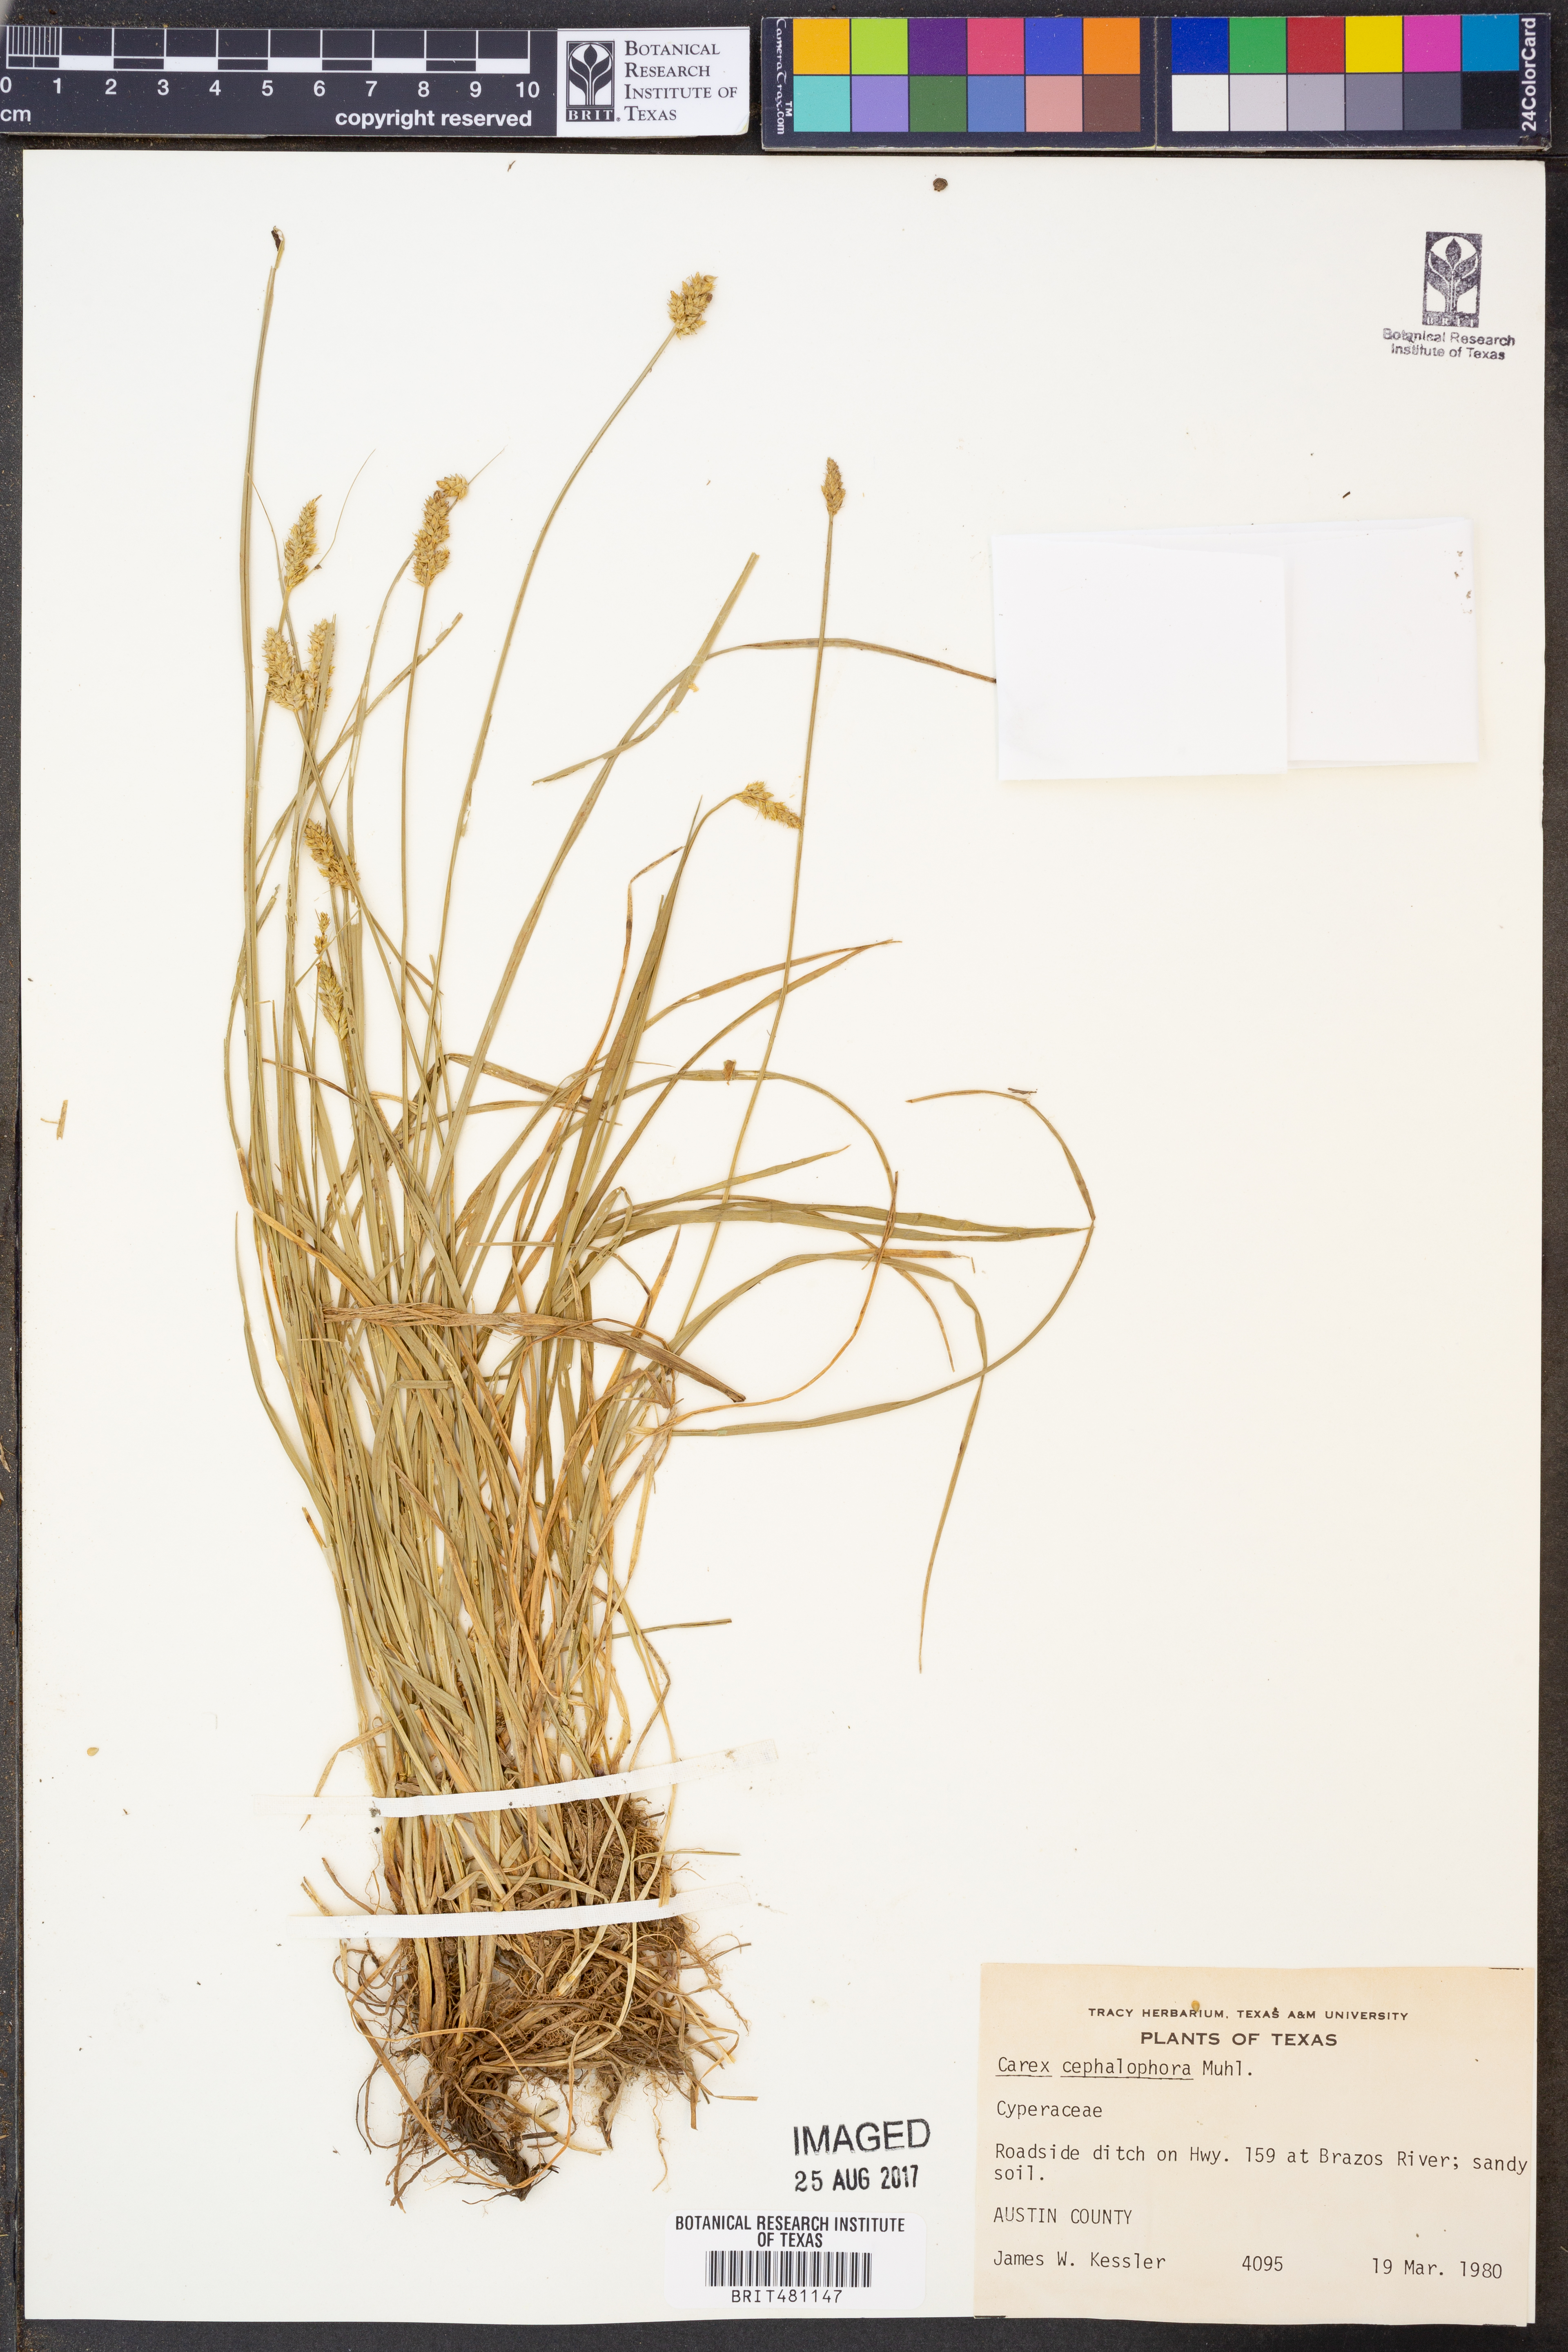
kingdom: Plantae
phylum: Tracheophyta
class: Liliopsida
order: Poales
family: Cyperaceae
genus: Carex
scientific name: Carex cephalophora
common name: Oval-headed sedge
